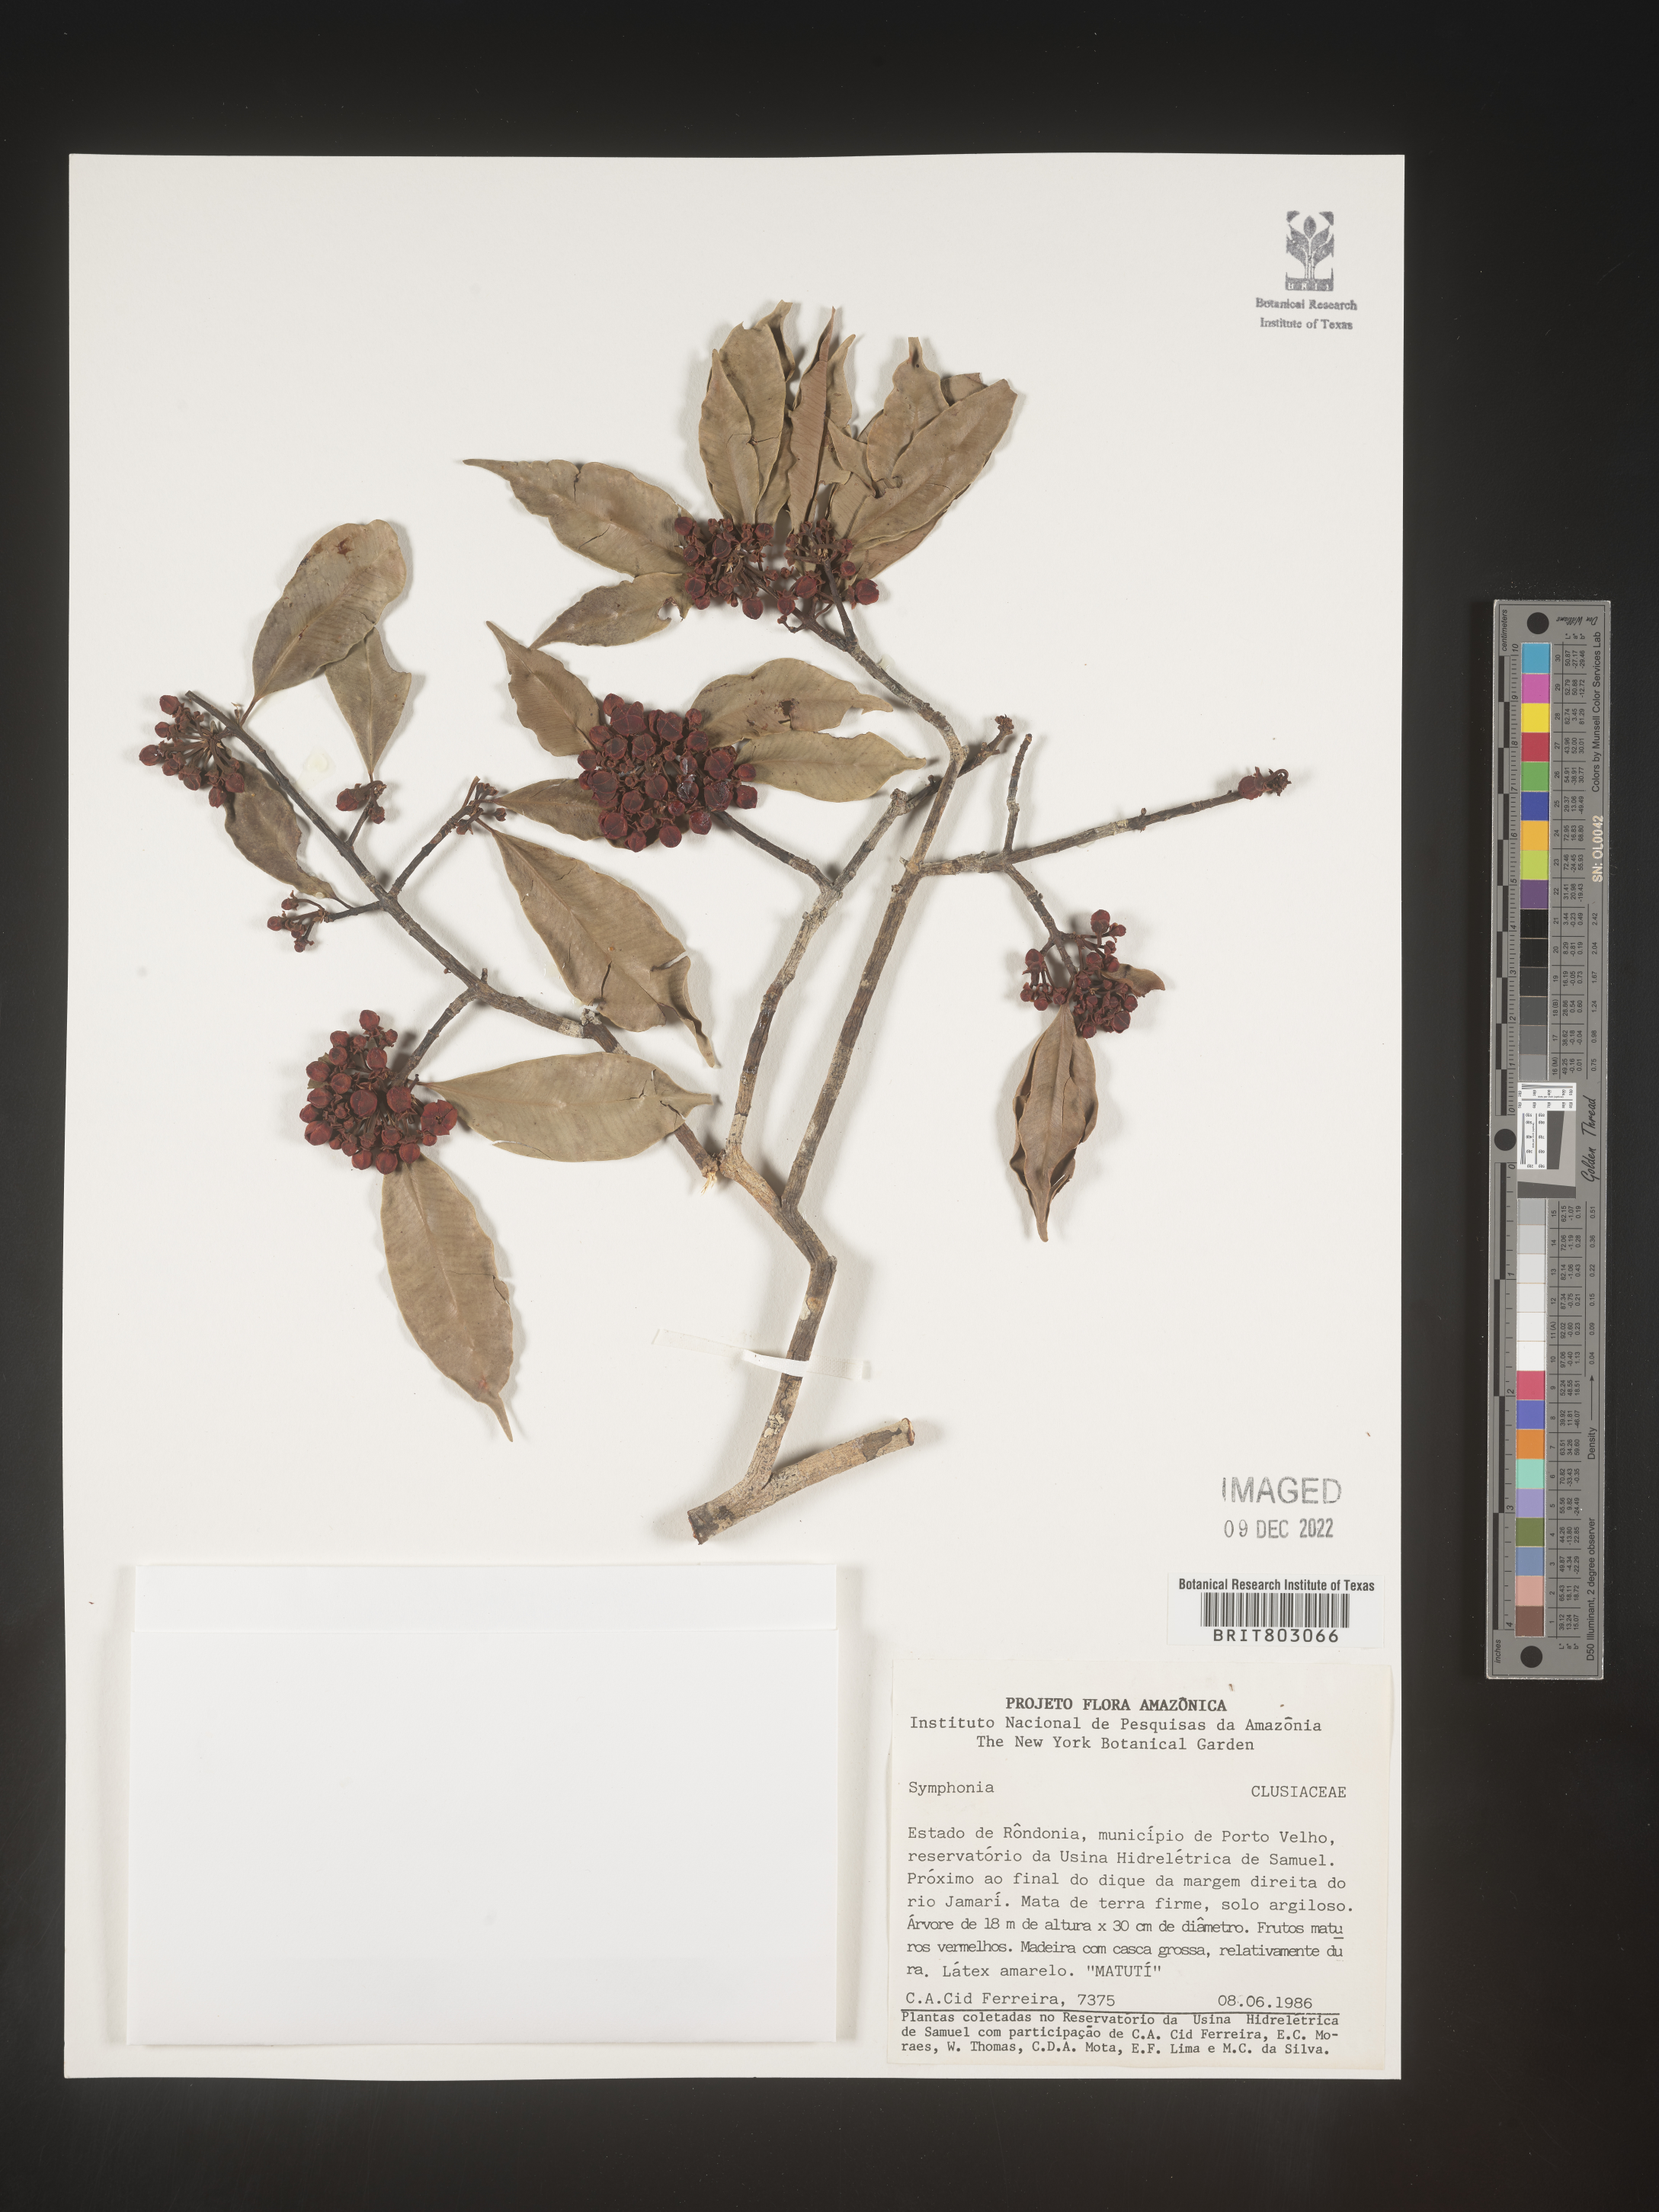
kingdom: Plantae
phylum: Tracheophyta
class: Magnoliopsida
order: Malpighiales
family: Clusiaceae
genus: Symphonia
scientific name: Symphonia
